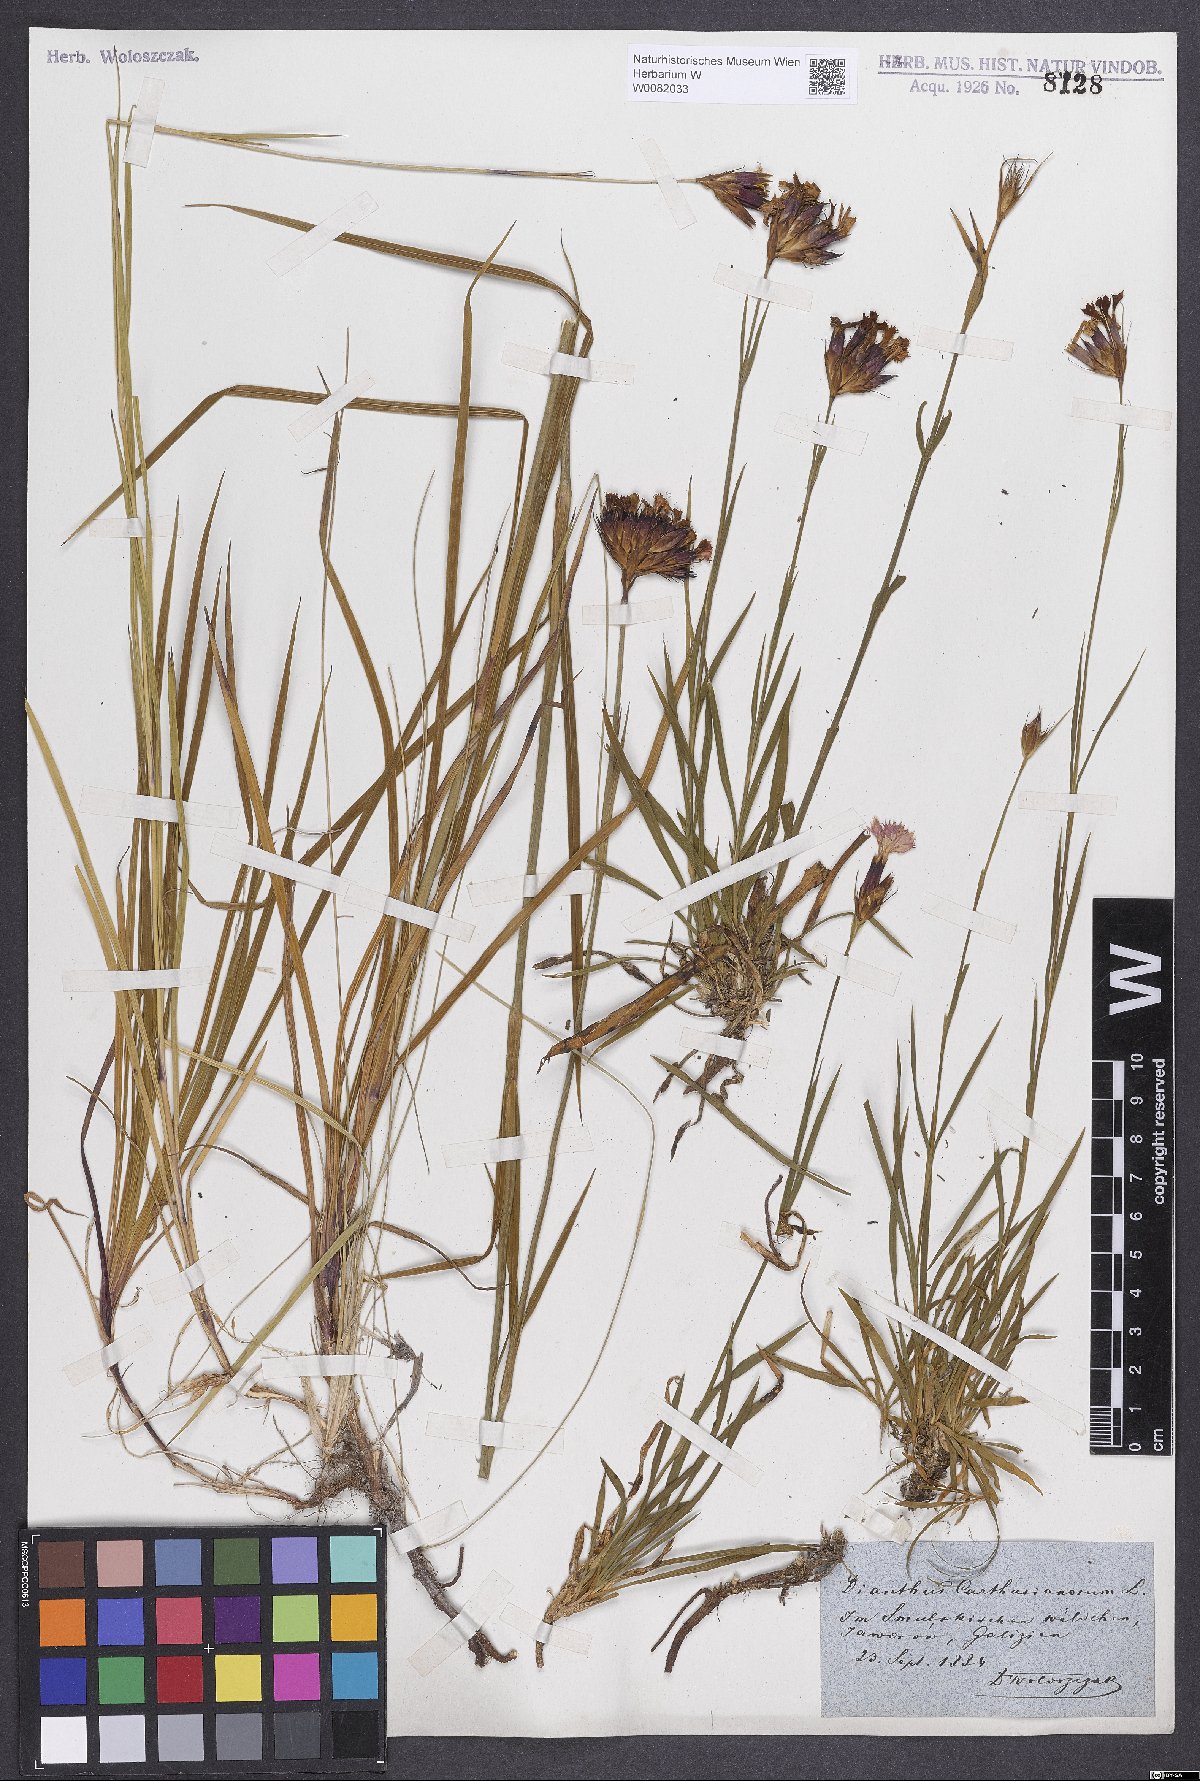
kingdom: Plantae
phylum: Tracheophyta
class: Magnoliopsida
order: Caryophyllales
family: Caryophyllaceae
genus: Dianthus
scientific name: Dianthus carthusianorum
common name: Carthusian pink
